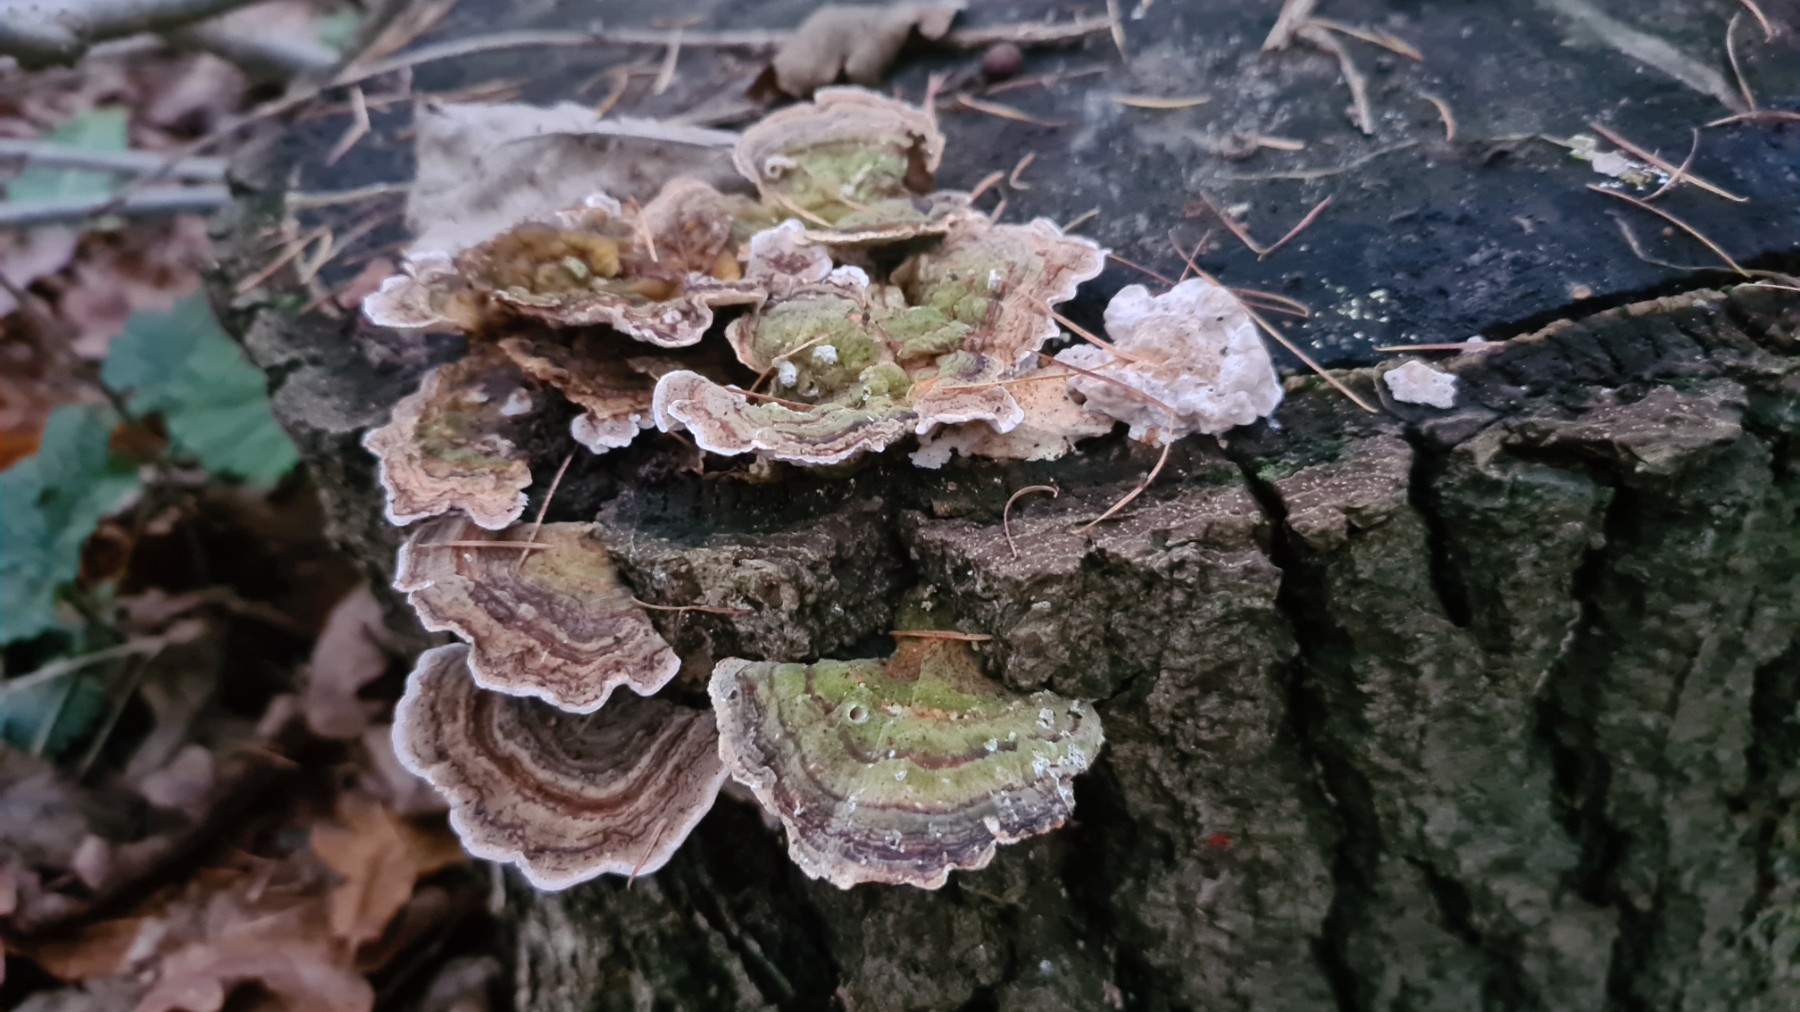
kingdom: Fungi
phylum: Basidiomycota
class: Agaricomycetes
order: Polyporales
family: Polyporaceae
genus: Trametes
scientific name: Trametes versicolor
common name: broget læderporesvamp
